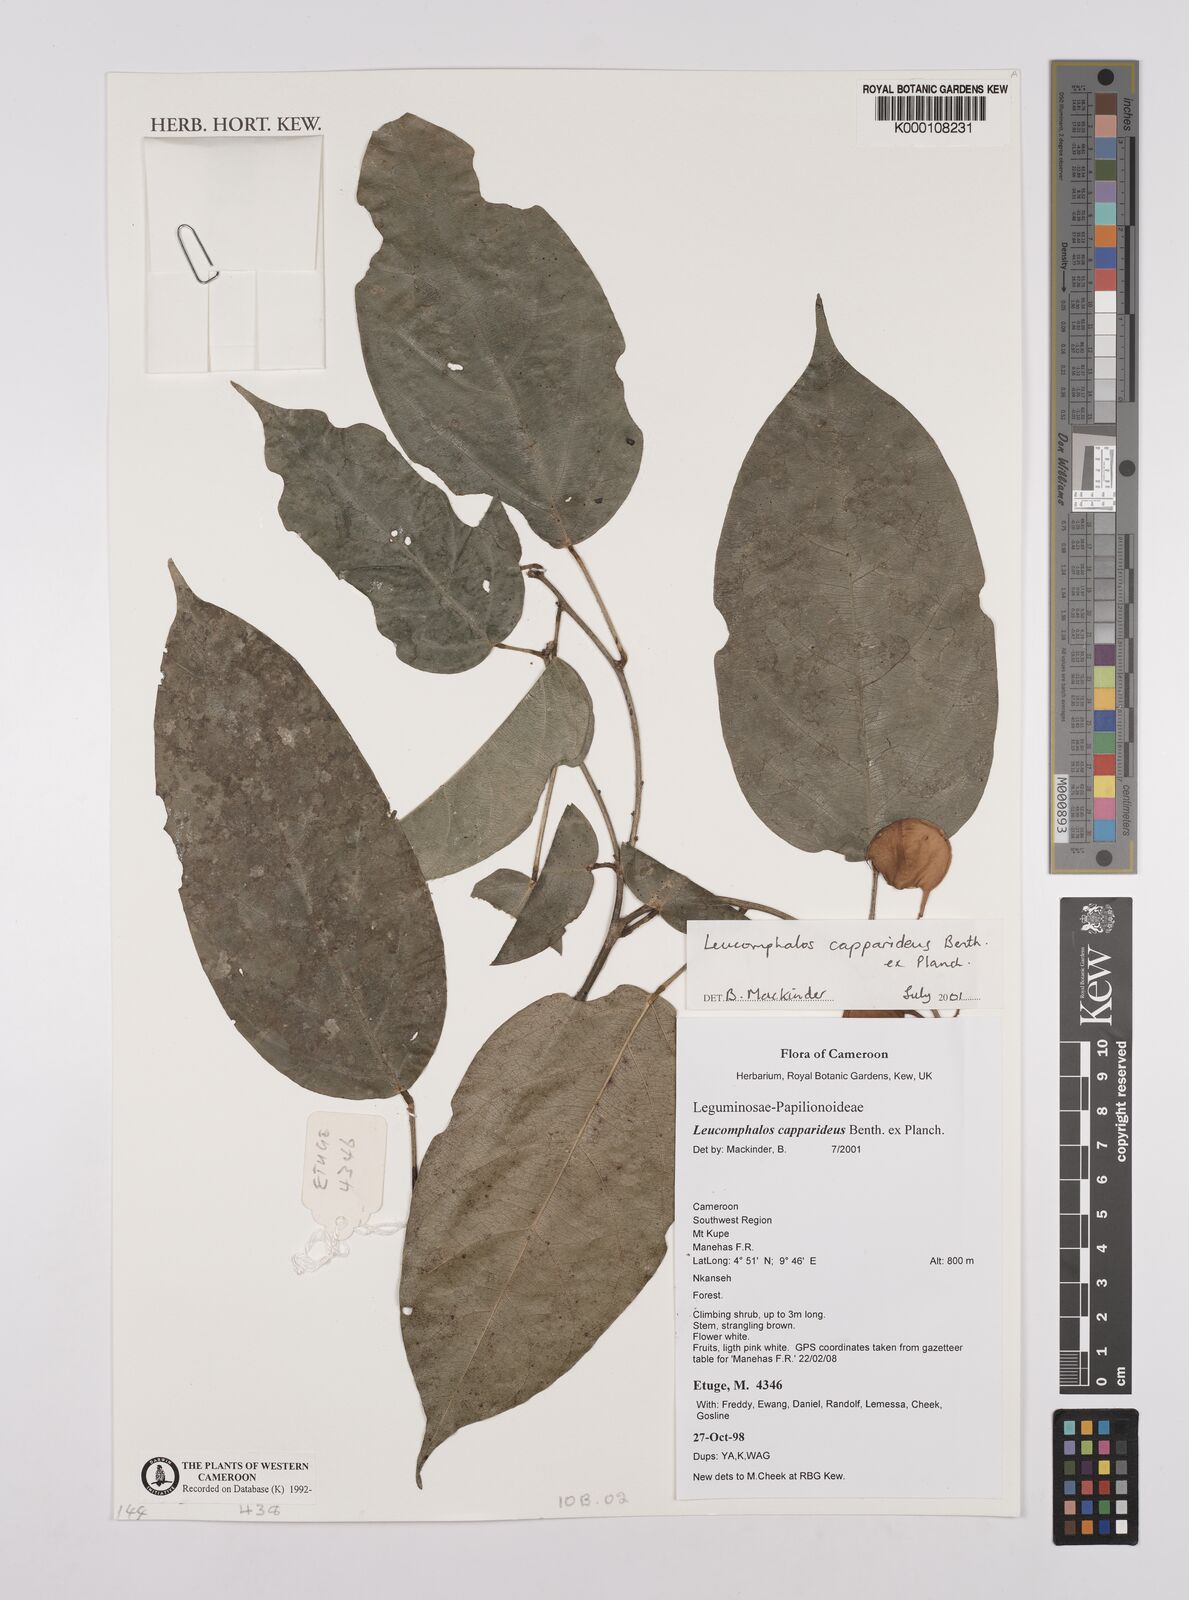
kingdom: Plantae
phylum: Tracheophyta
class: Magnoliopsida
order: Fabales
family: Fabaceae
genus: Leucomphalos
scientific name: Leucomphalos
